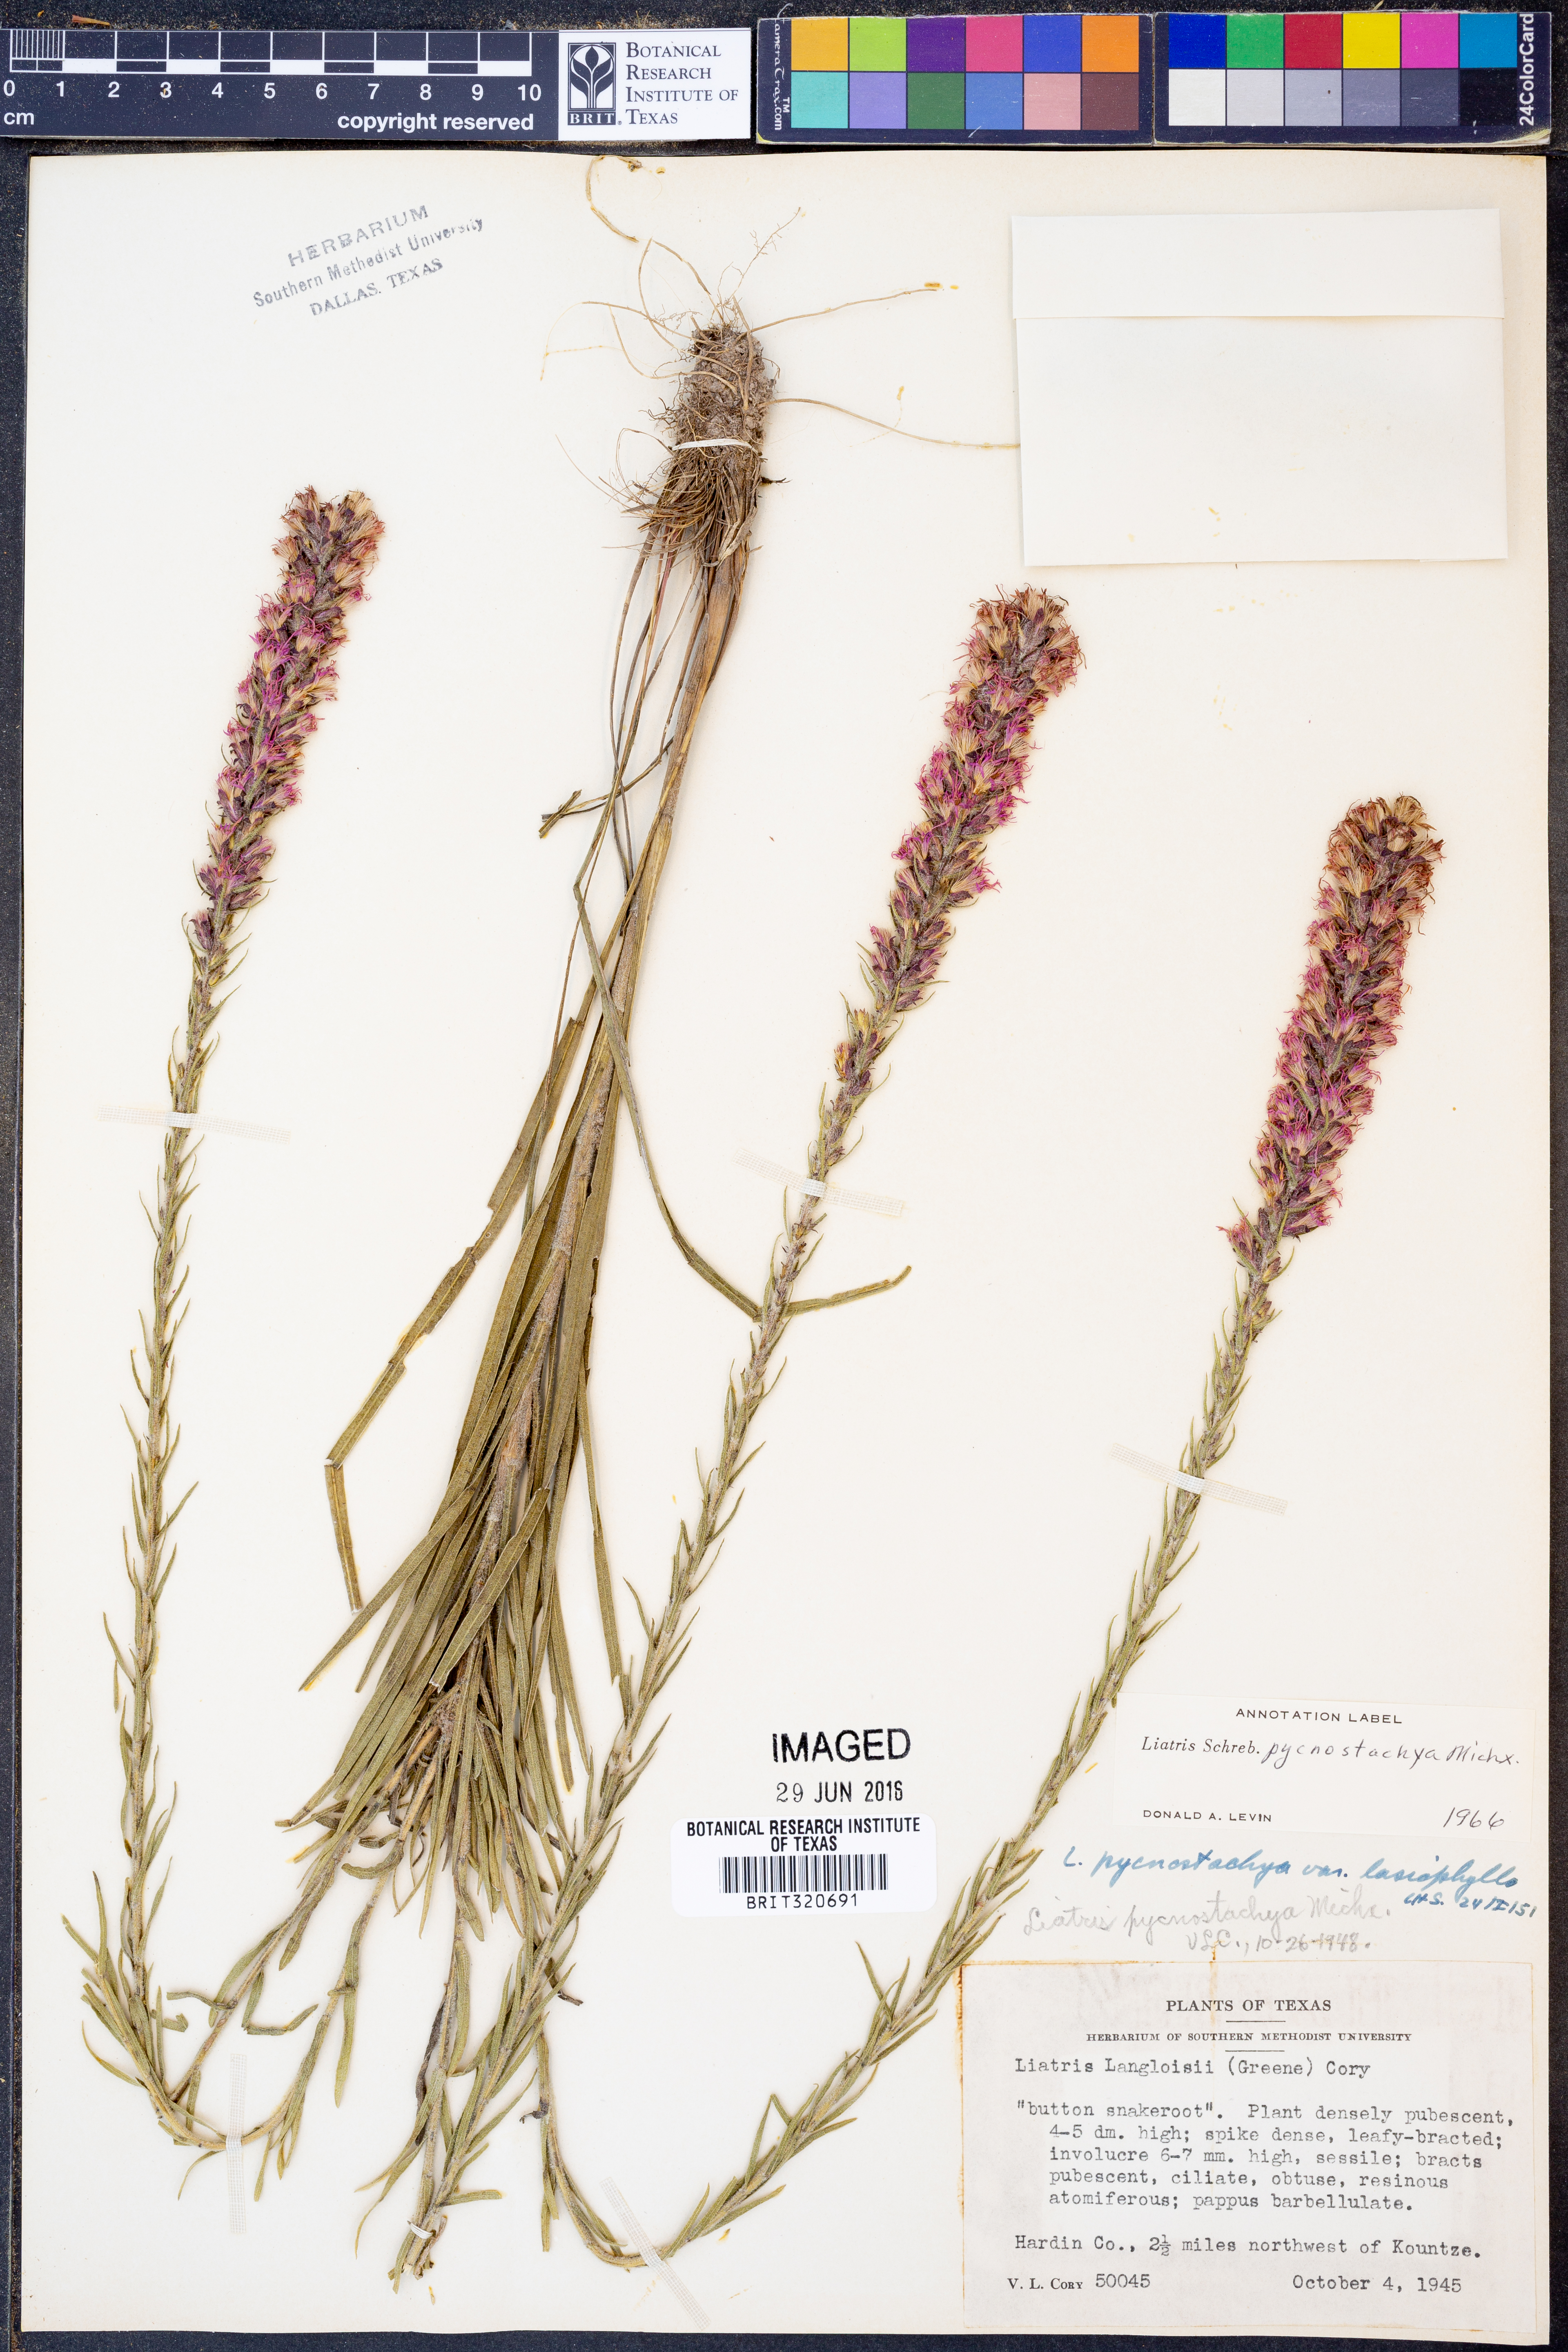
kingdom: Plantae
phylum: Tracheophyta
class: Magnoliopsida
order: Asterales
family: Asteraceae
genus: Liatris
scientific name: Liatris pycnostachya
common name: Cattail gayfeather
